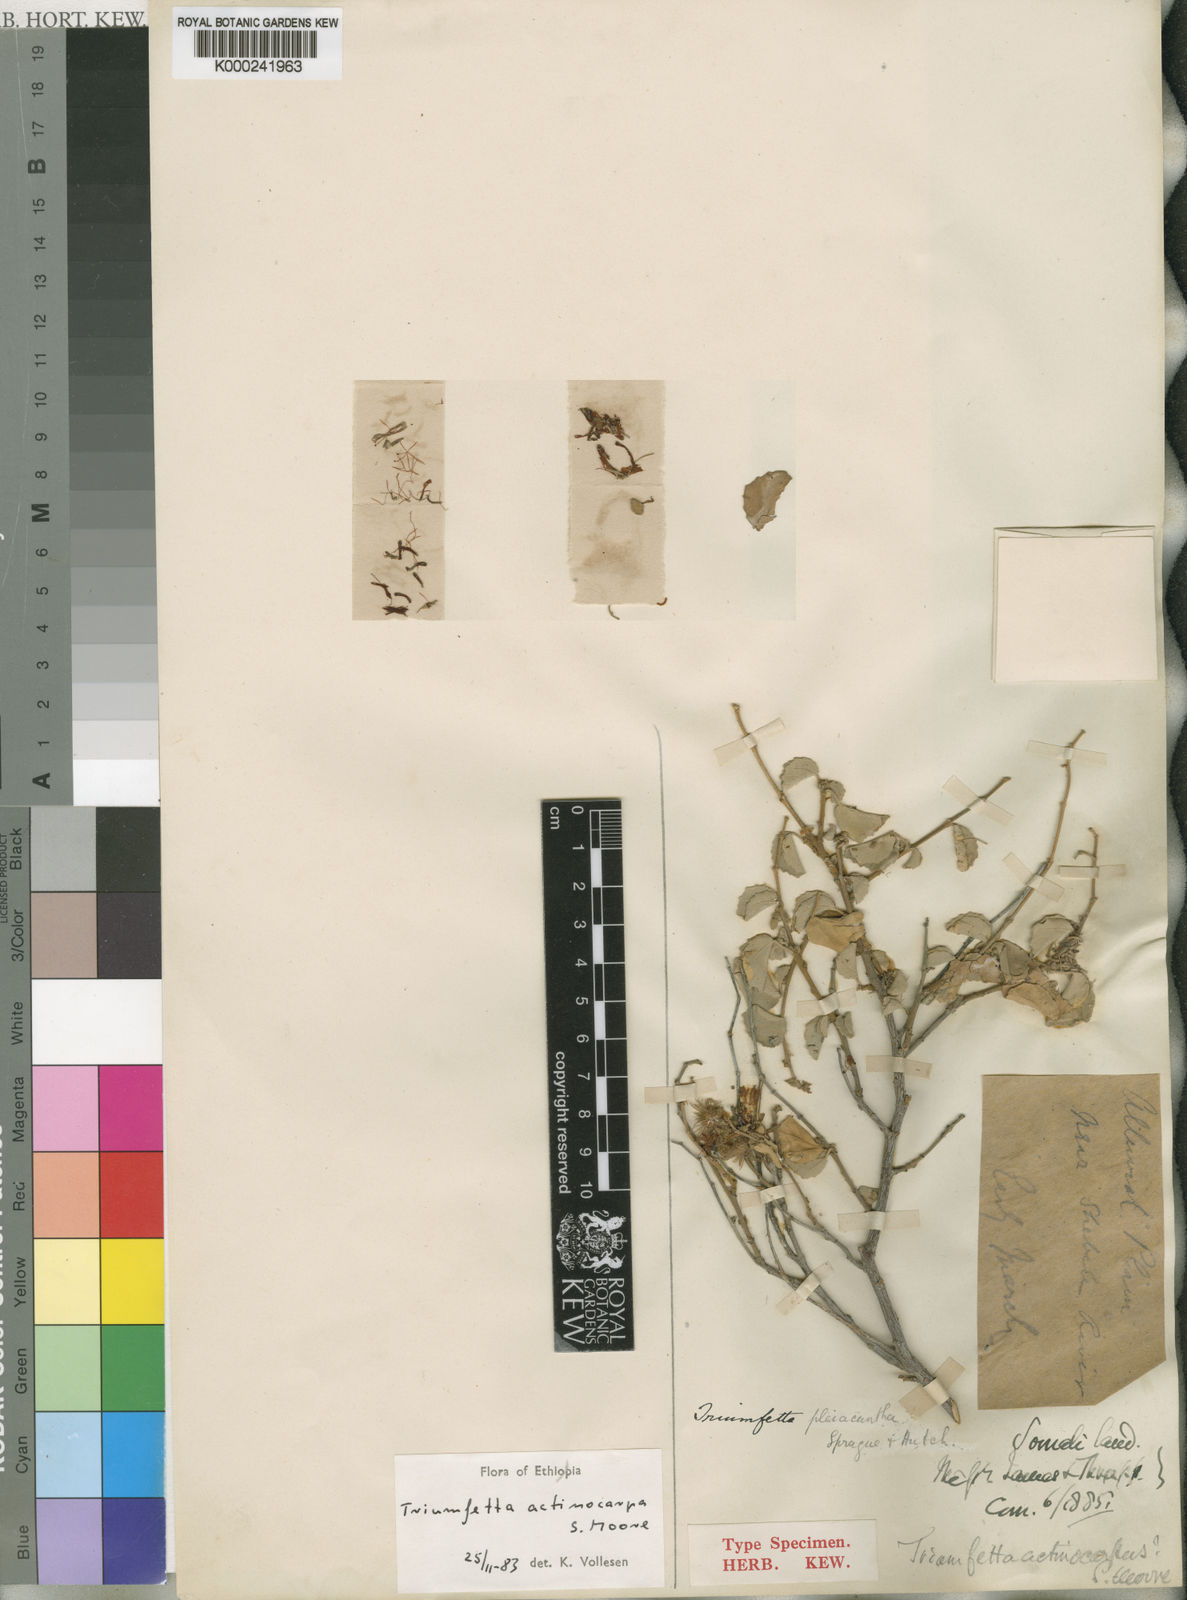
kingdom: Plantae
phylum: Tracheophyta
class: Magnoliopsida
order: Malvales
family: Malvaceae
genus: Triumfetta
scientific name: Triumfetta actinocarpa
